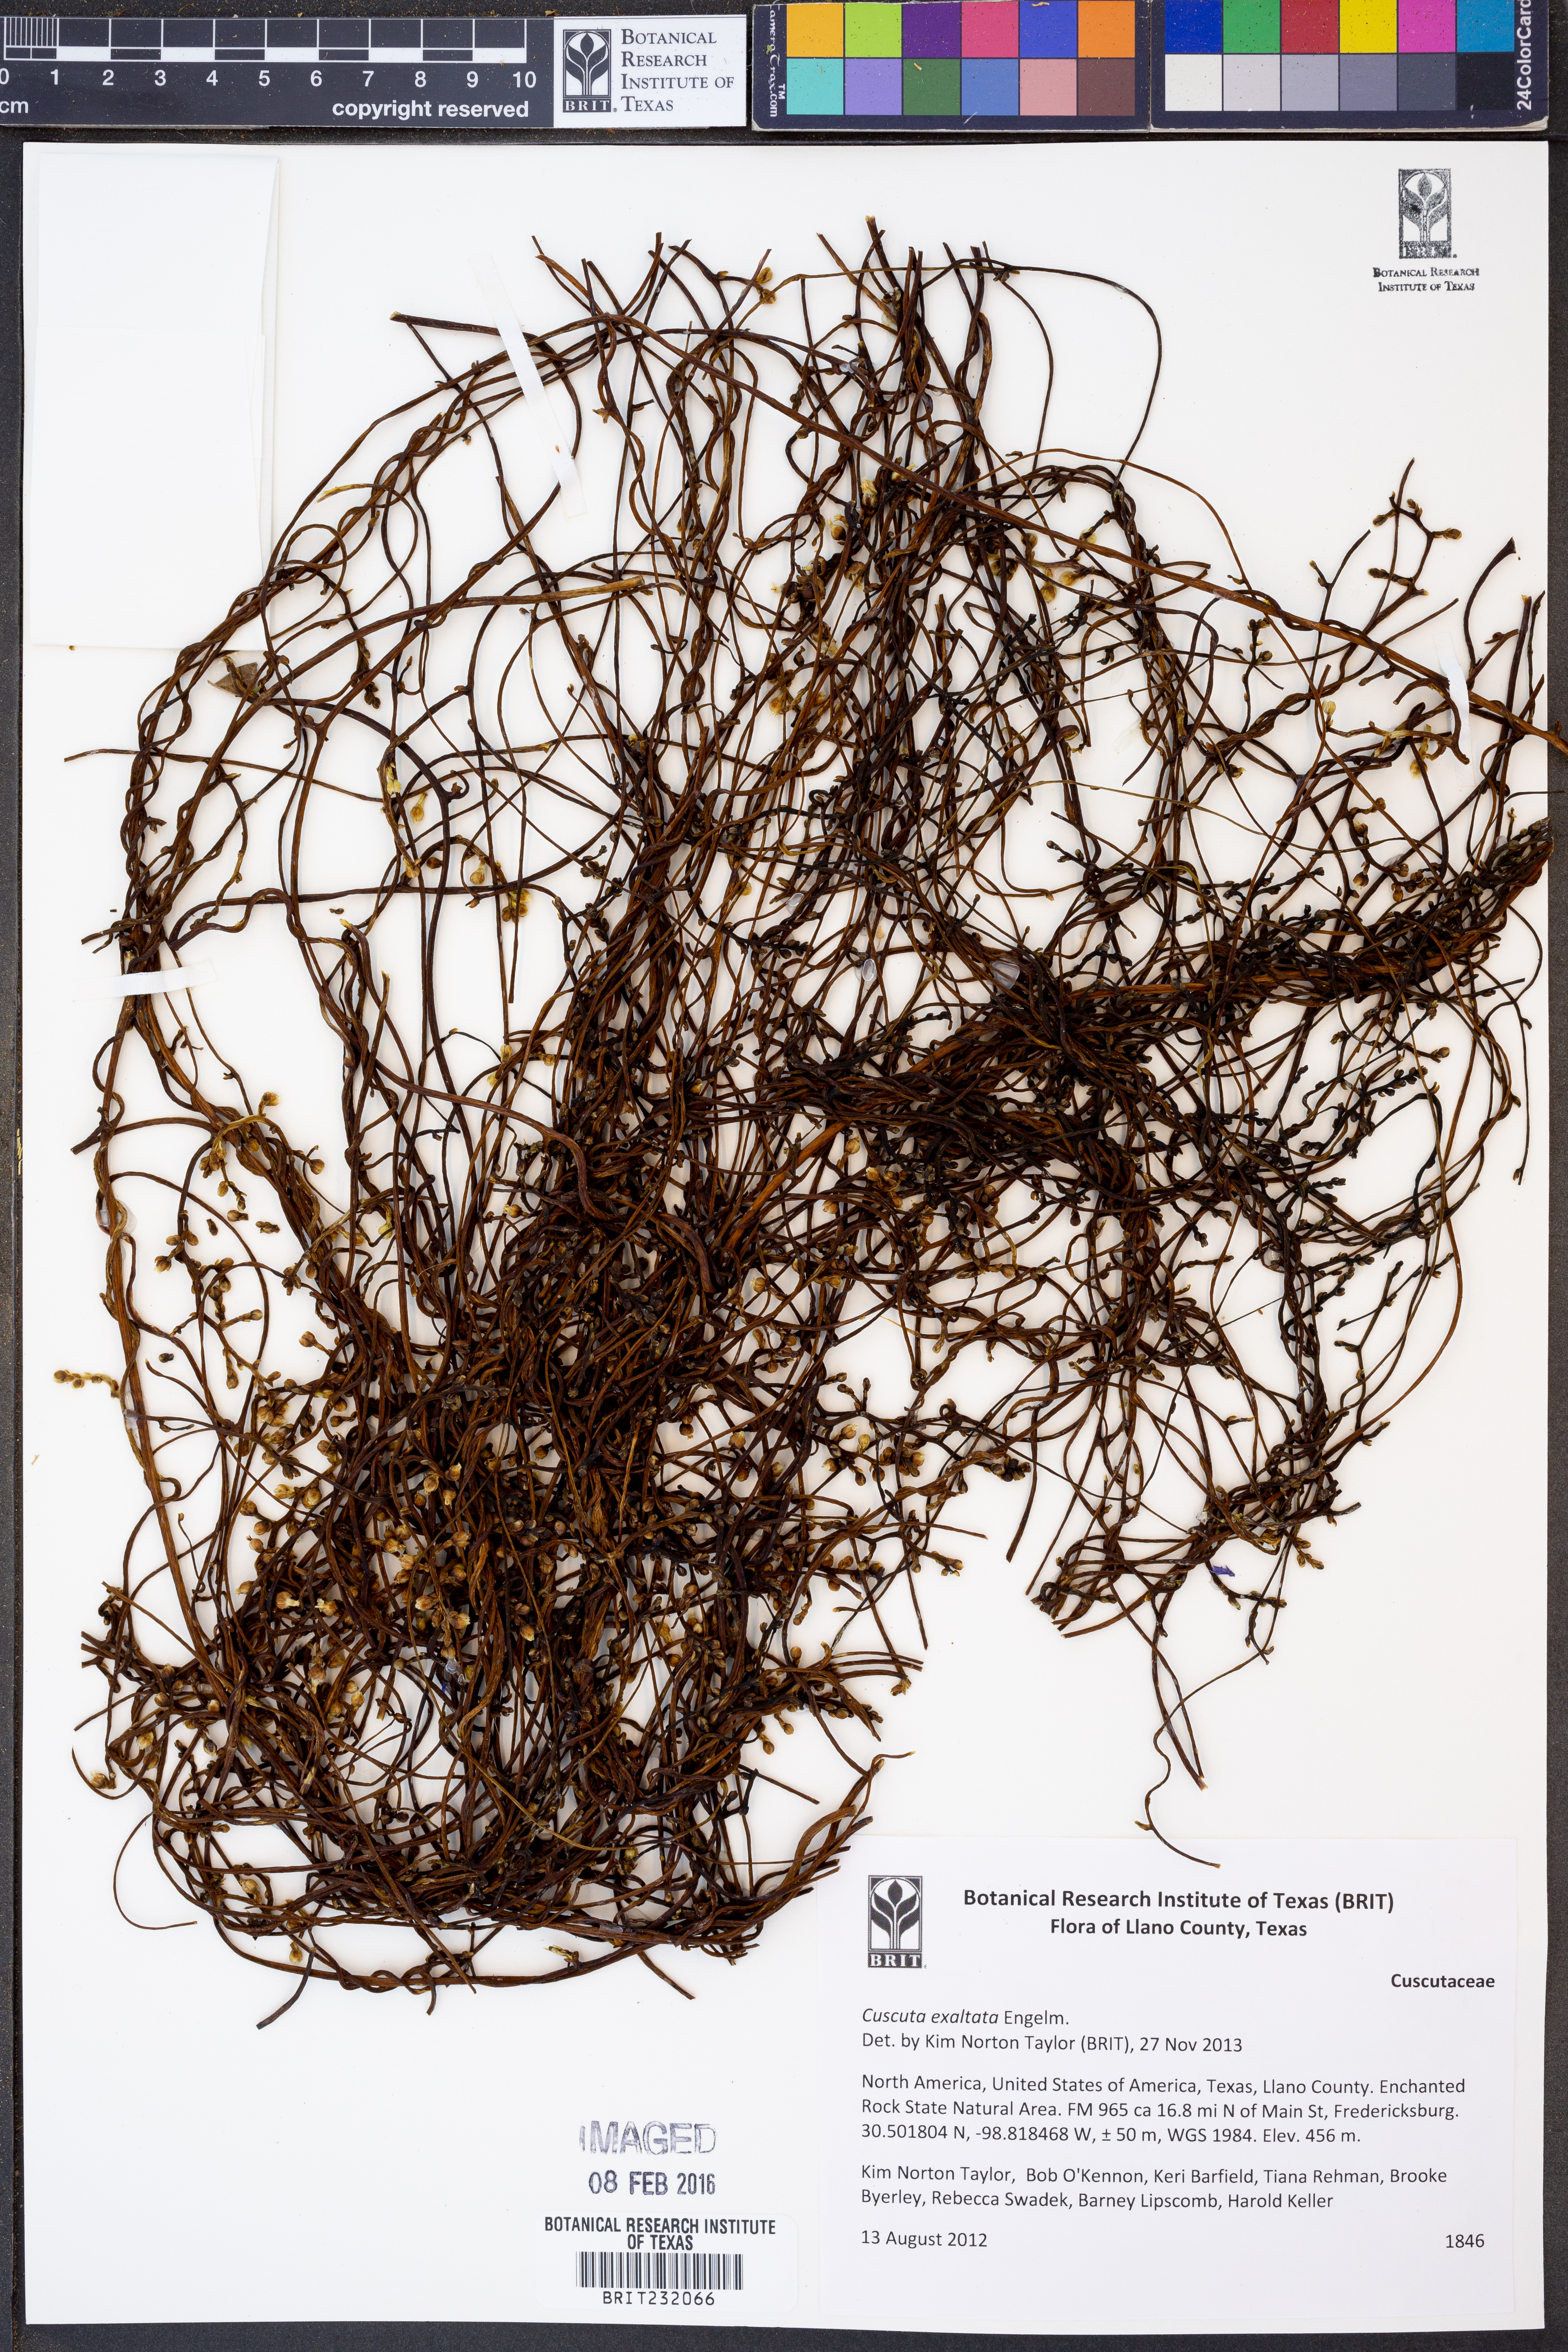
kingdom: Plantae
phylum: Tracheophyta
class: Magnoliopsida
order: Solanales
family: Convolvulaceae
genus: Cuscuta
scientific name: Cuscuta exaltata
